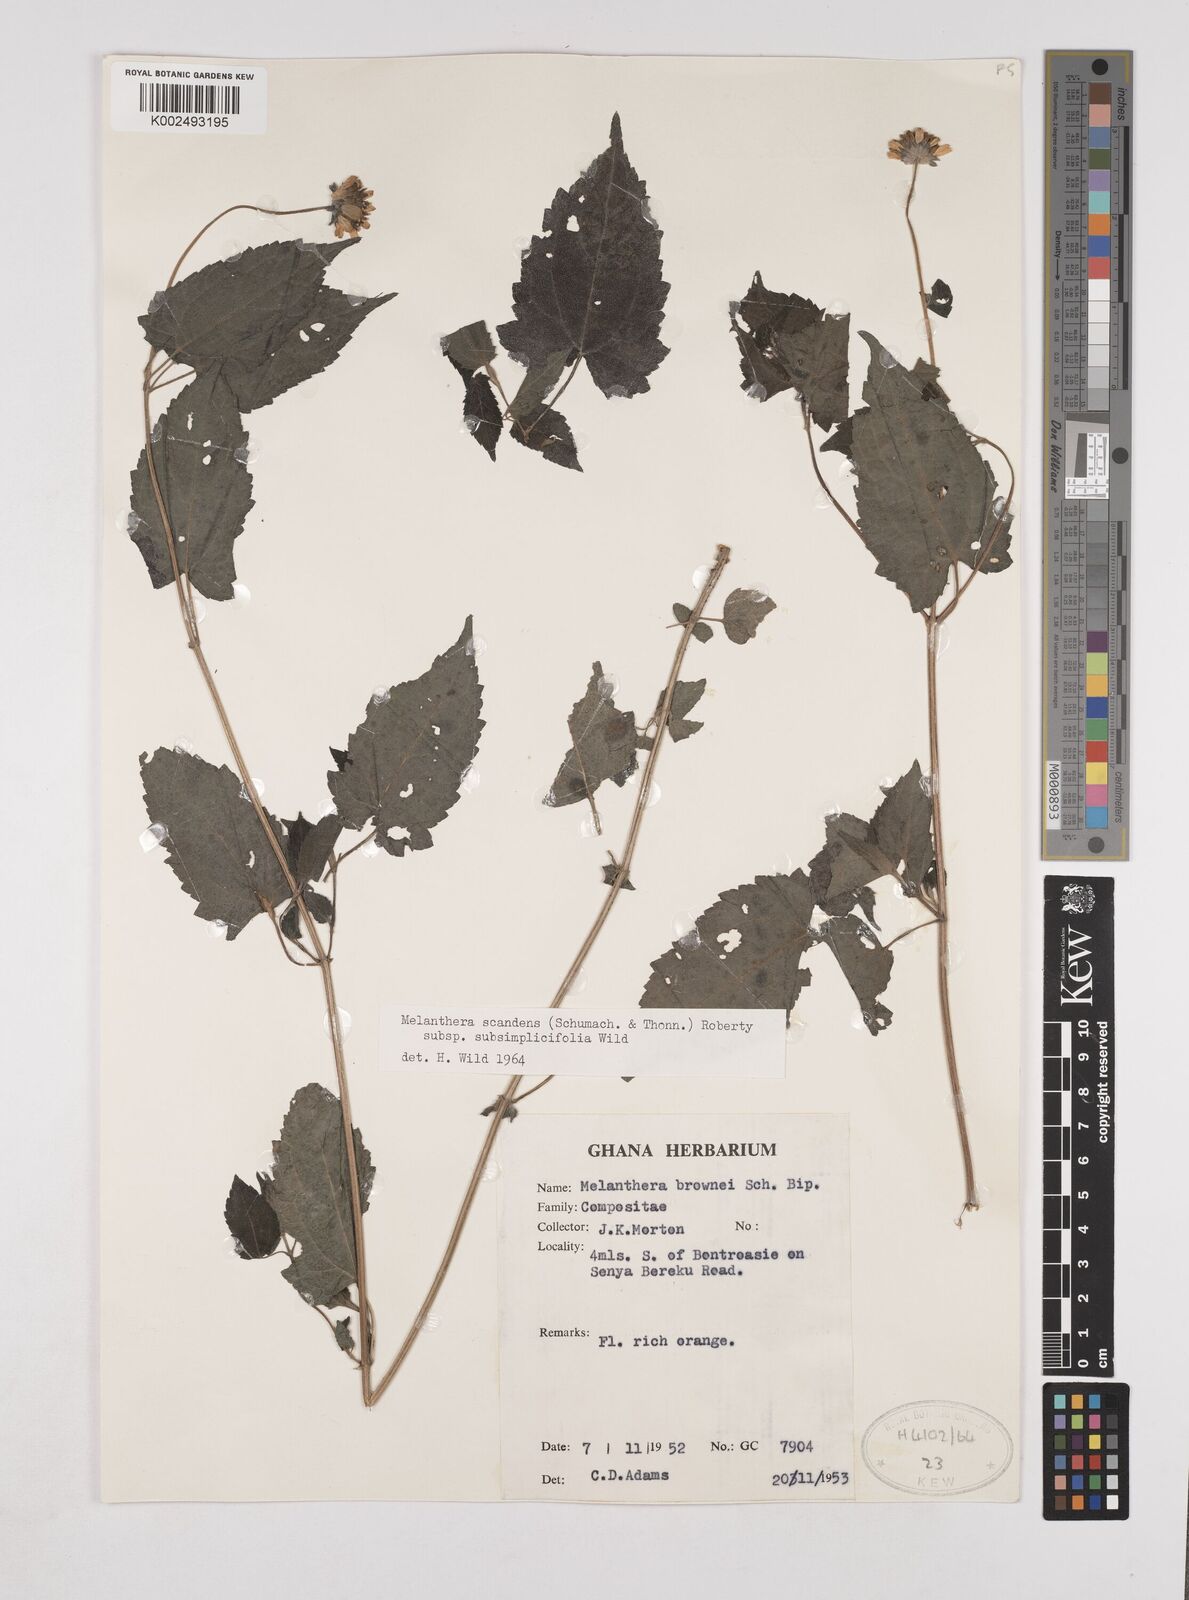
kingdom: Plantae
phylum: Tracheophyta
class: Magnoliopsida
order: Asterales
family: Asteraceae
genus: Lipotriche
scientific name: Lipotriche scandens
